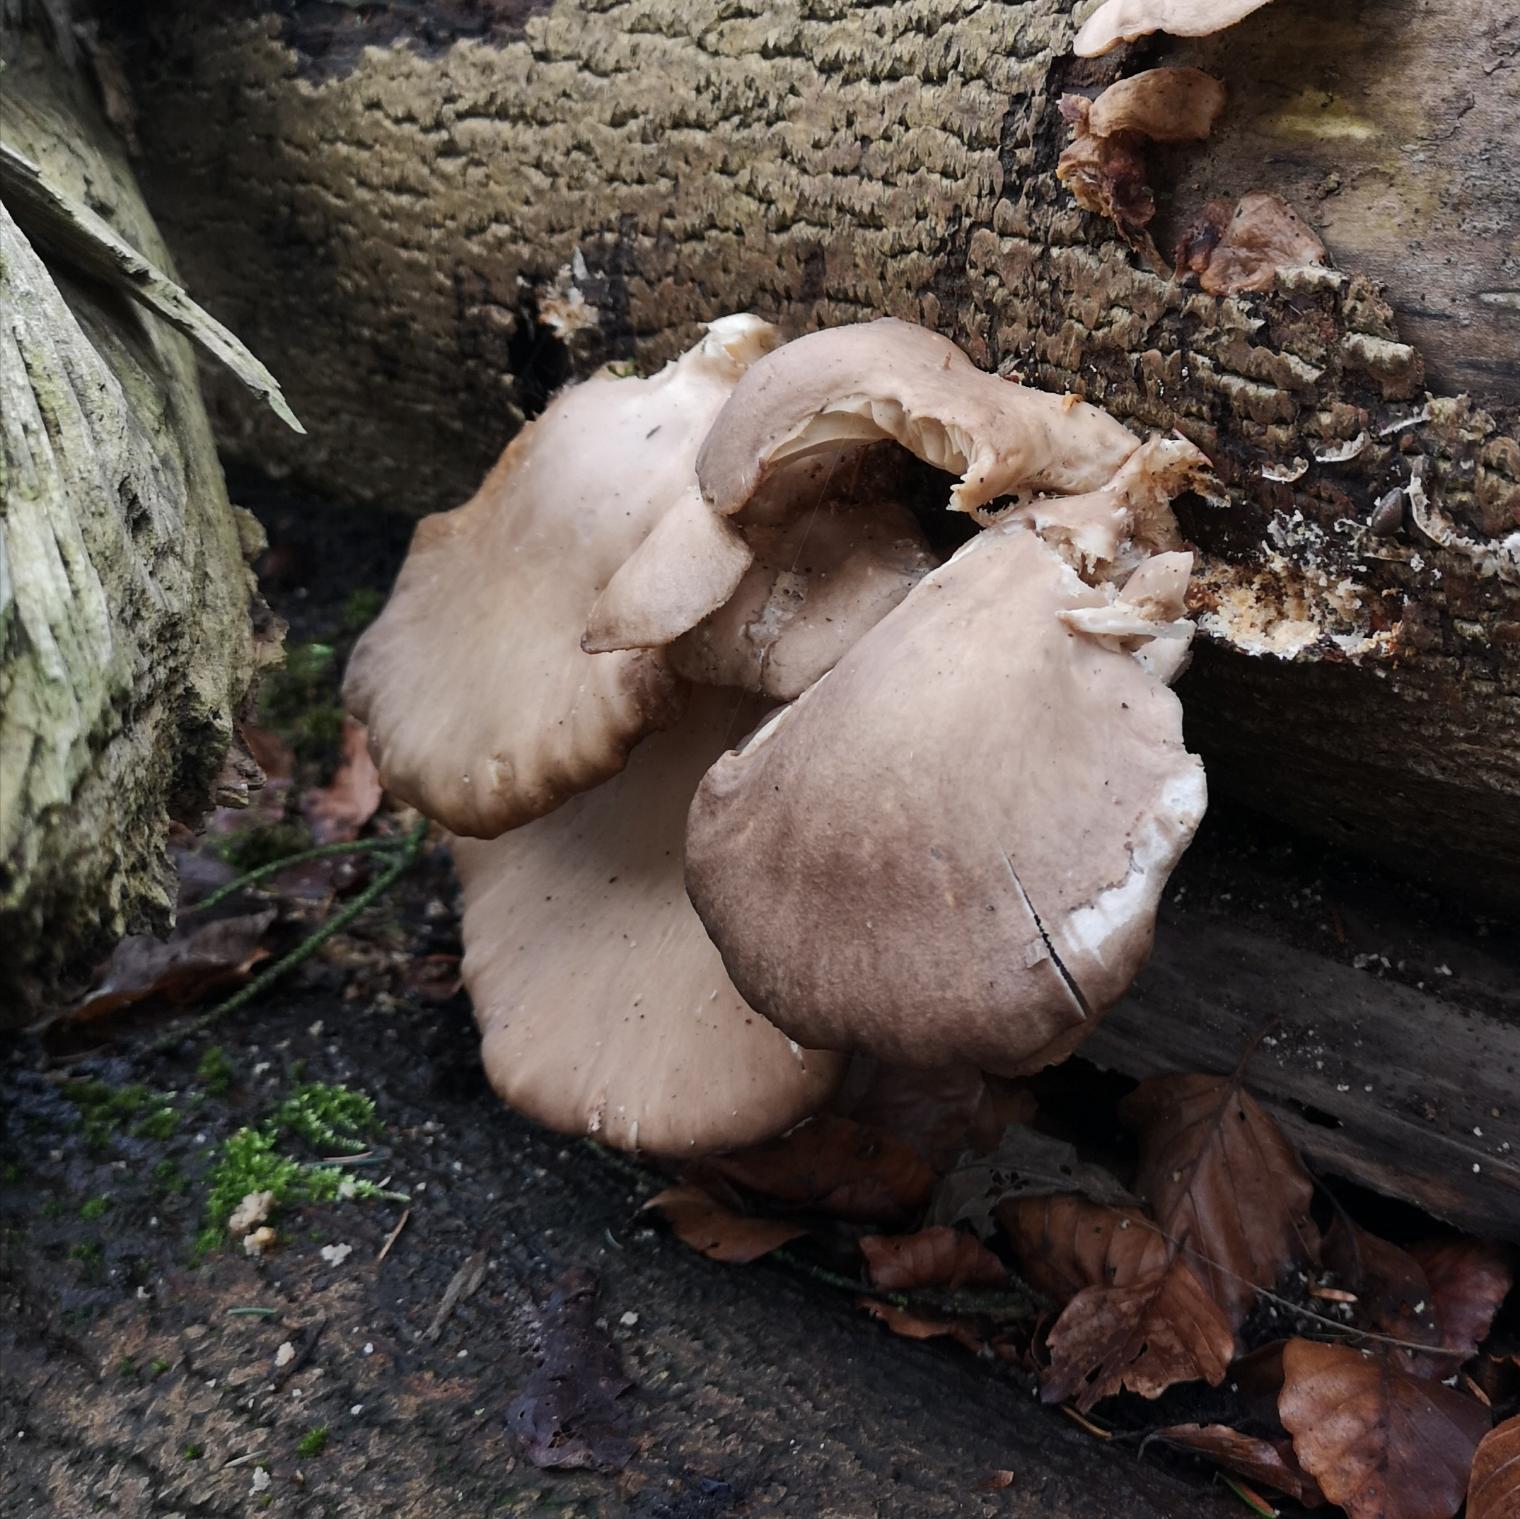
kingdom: Fungi
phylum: Basidiomycota
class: Agaricomycetes
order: Agaricales
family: Pleurotaceae
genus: Pleurotus
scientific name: Pleurotus
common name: Østershat
